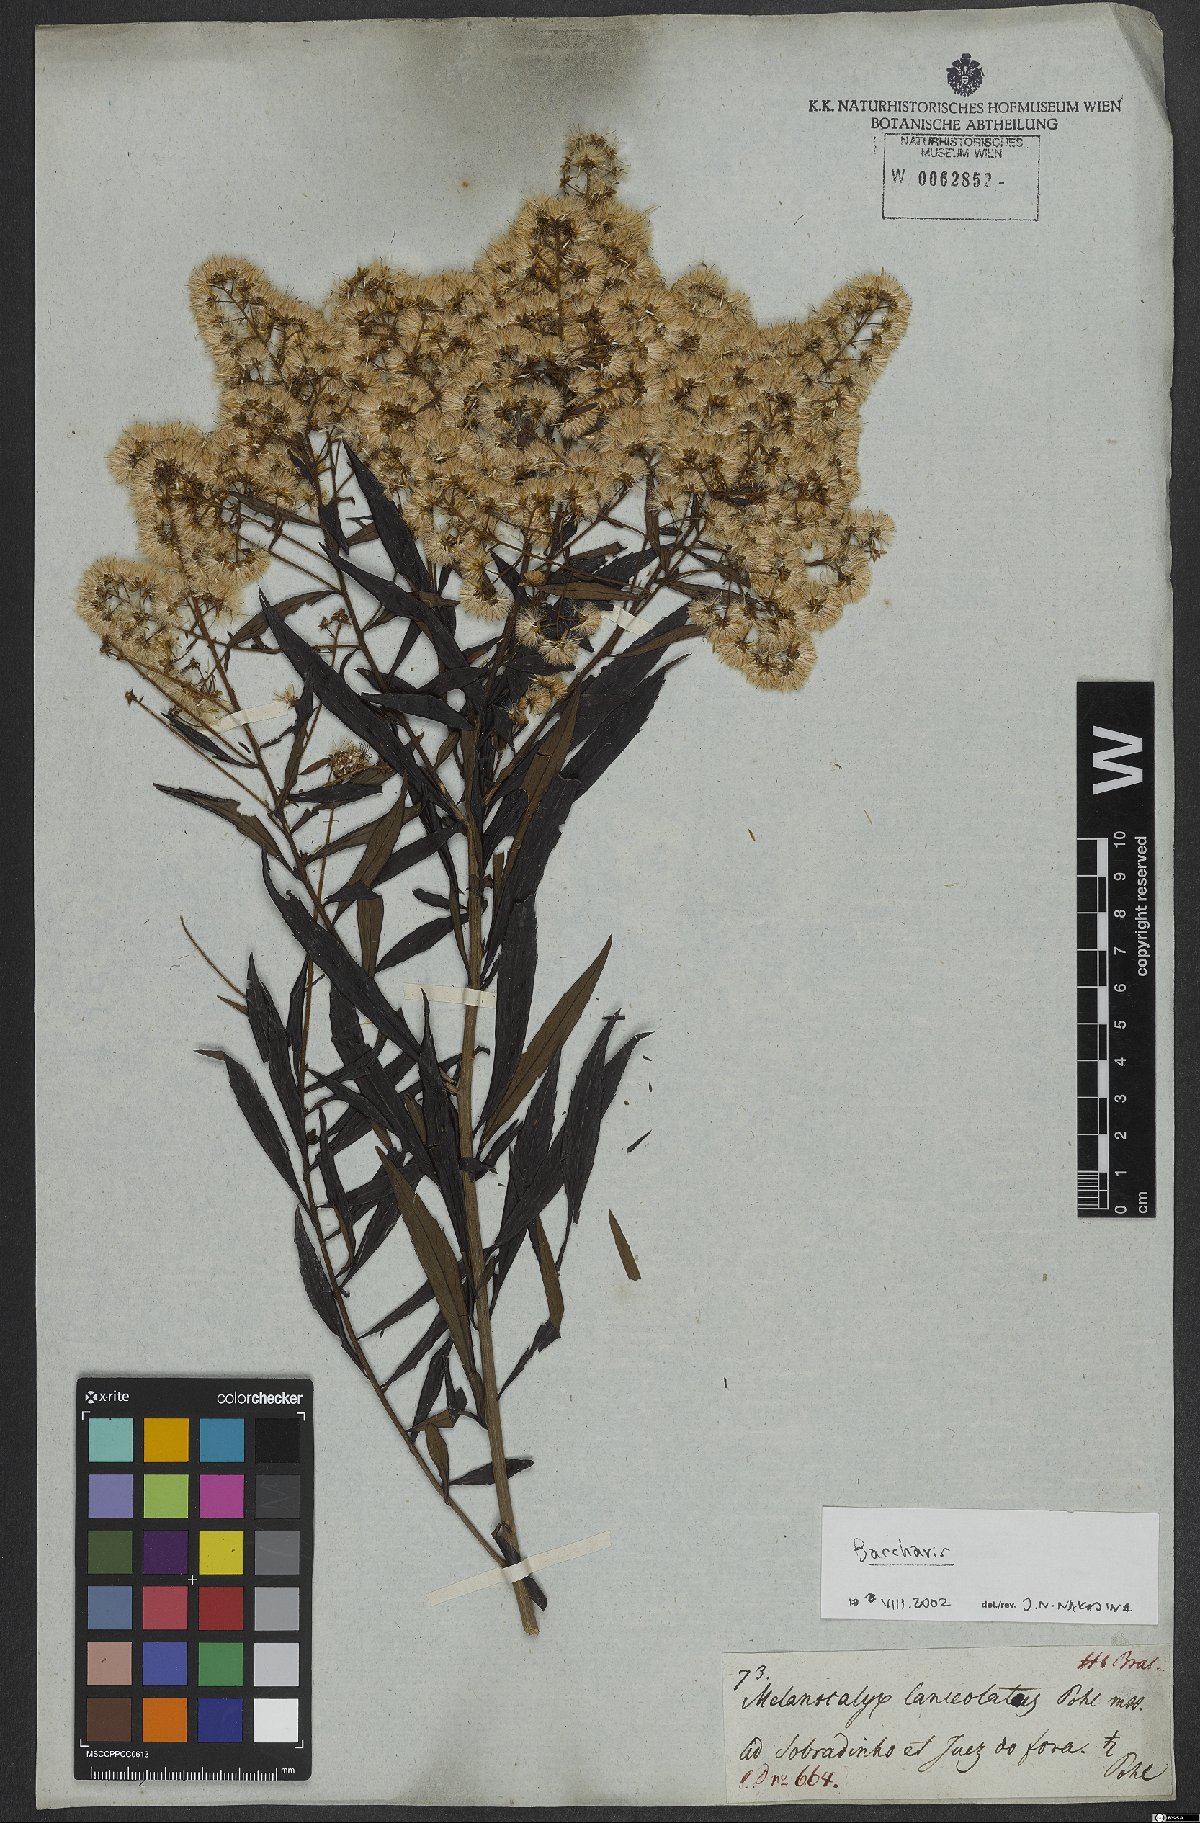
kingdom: Plantae
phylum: Tracheophyta
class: Magnoliopsida
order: Asterales
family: Asteraceae
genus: Baccharis
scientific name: Baccharis
